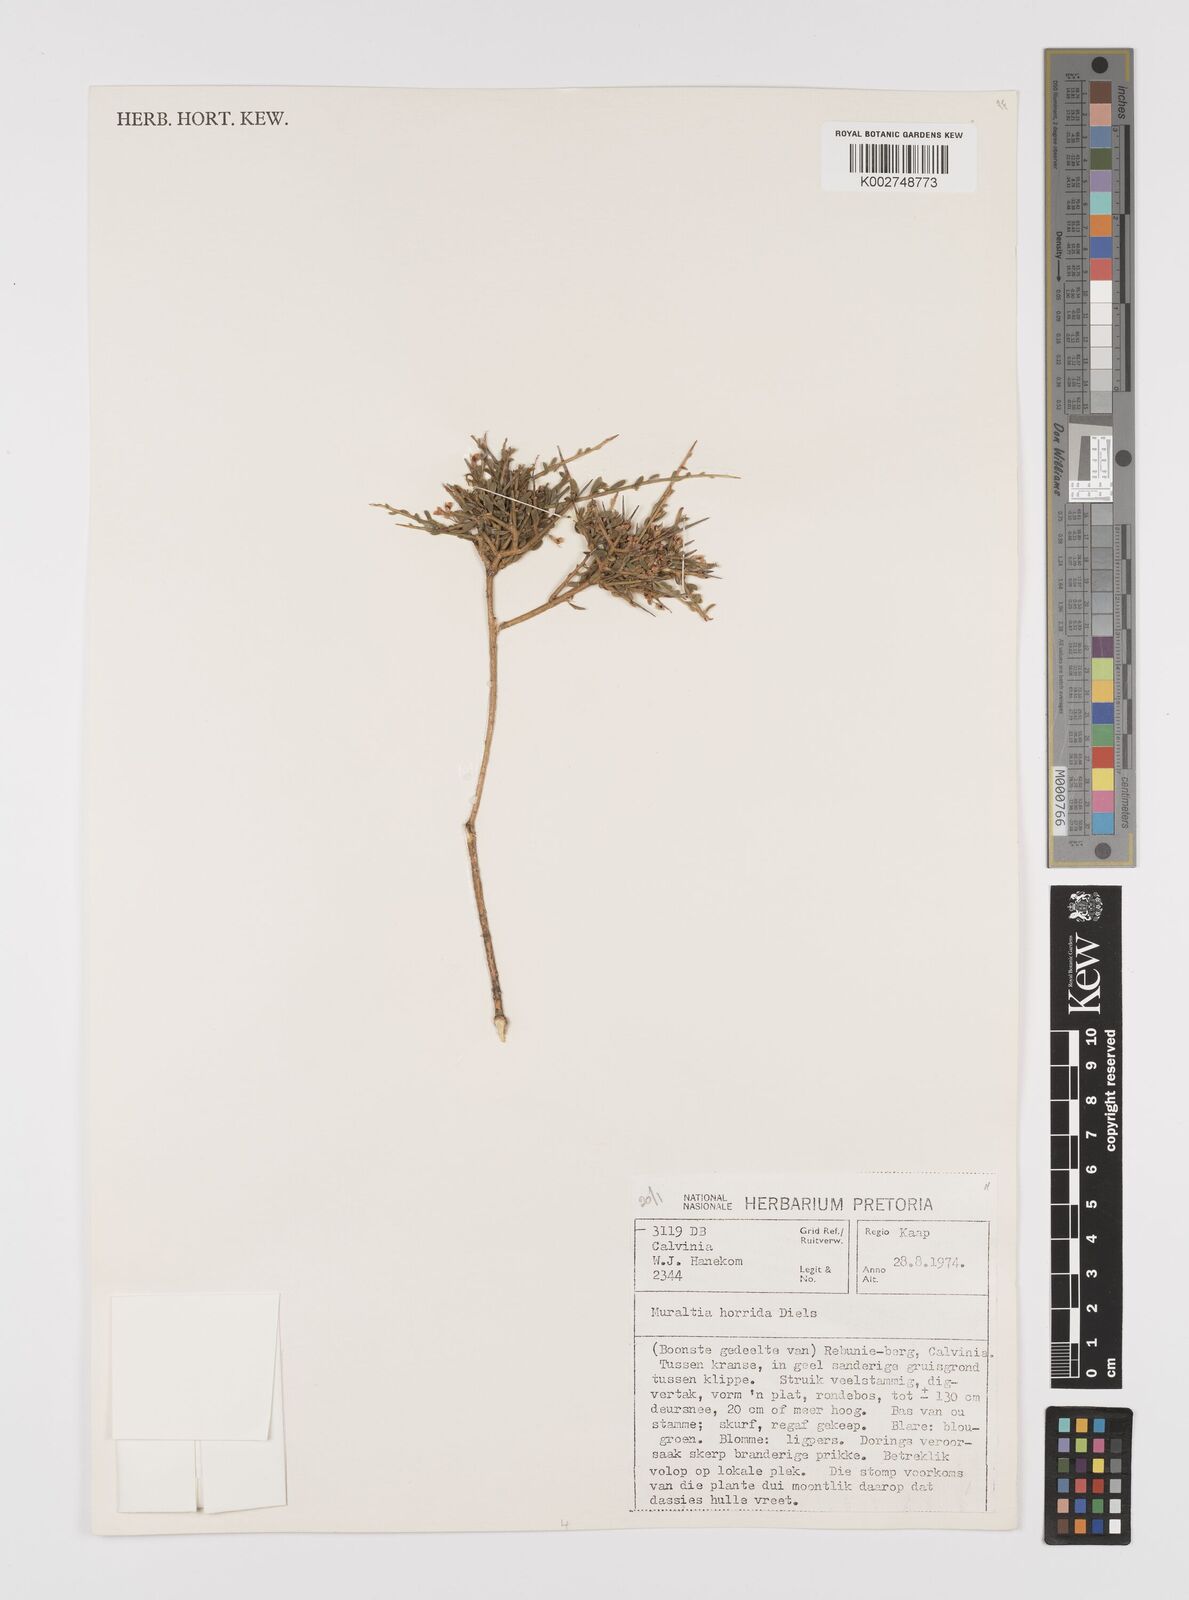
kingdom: Plantae
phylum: Tracheophyta
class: Magnoliopsida
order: Fabales
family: Polygalaceae
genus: Muraltia
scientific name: Muraltia horrida
